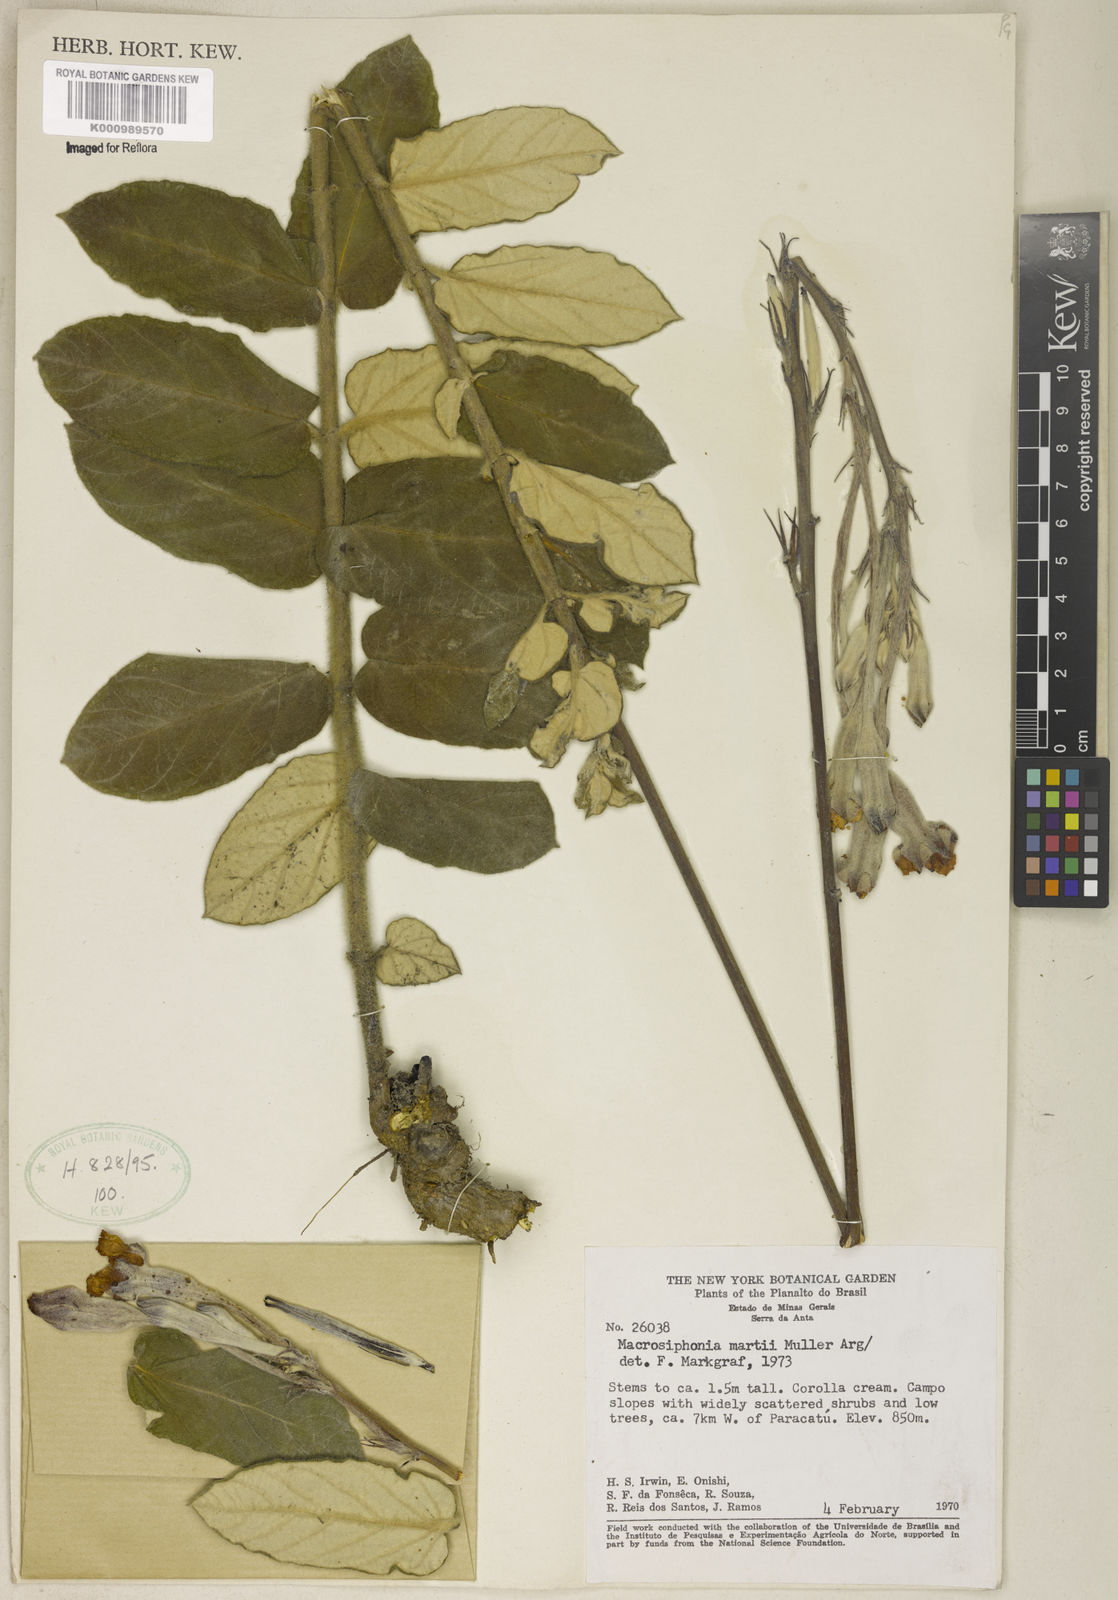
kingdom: Plantae
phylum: Tracheophyta
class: Magnoliopsida
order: Gentianales
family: Apocynaceae
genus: Mandevilla
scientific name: Mandevilla
